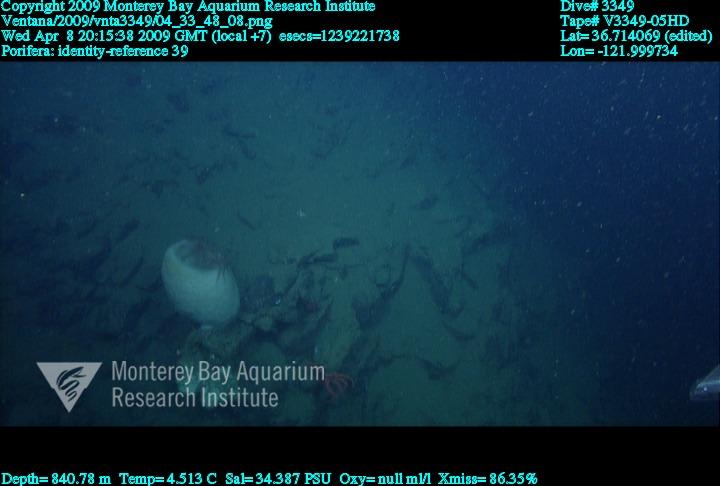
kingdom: Animalia
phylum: Porifera
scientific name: Porifera
